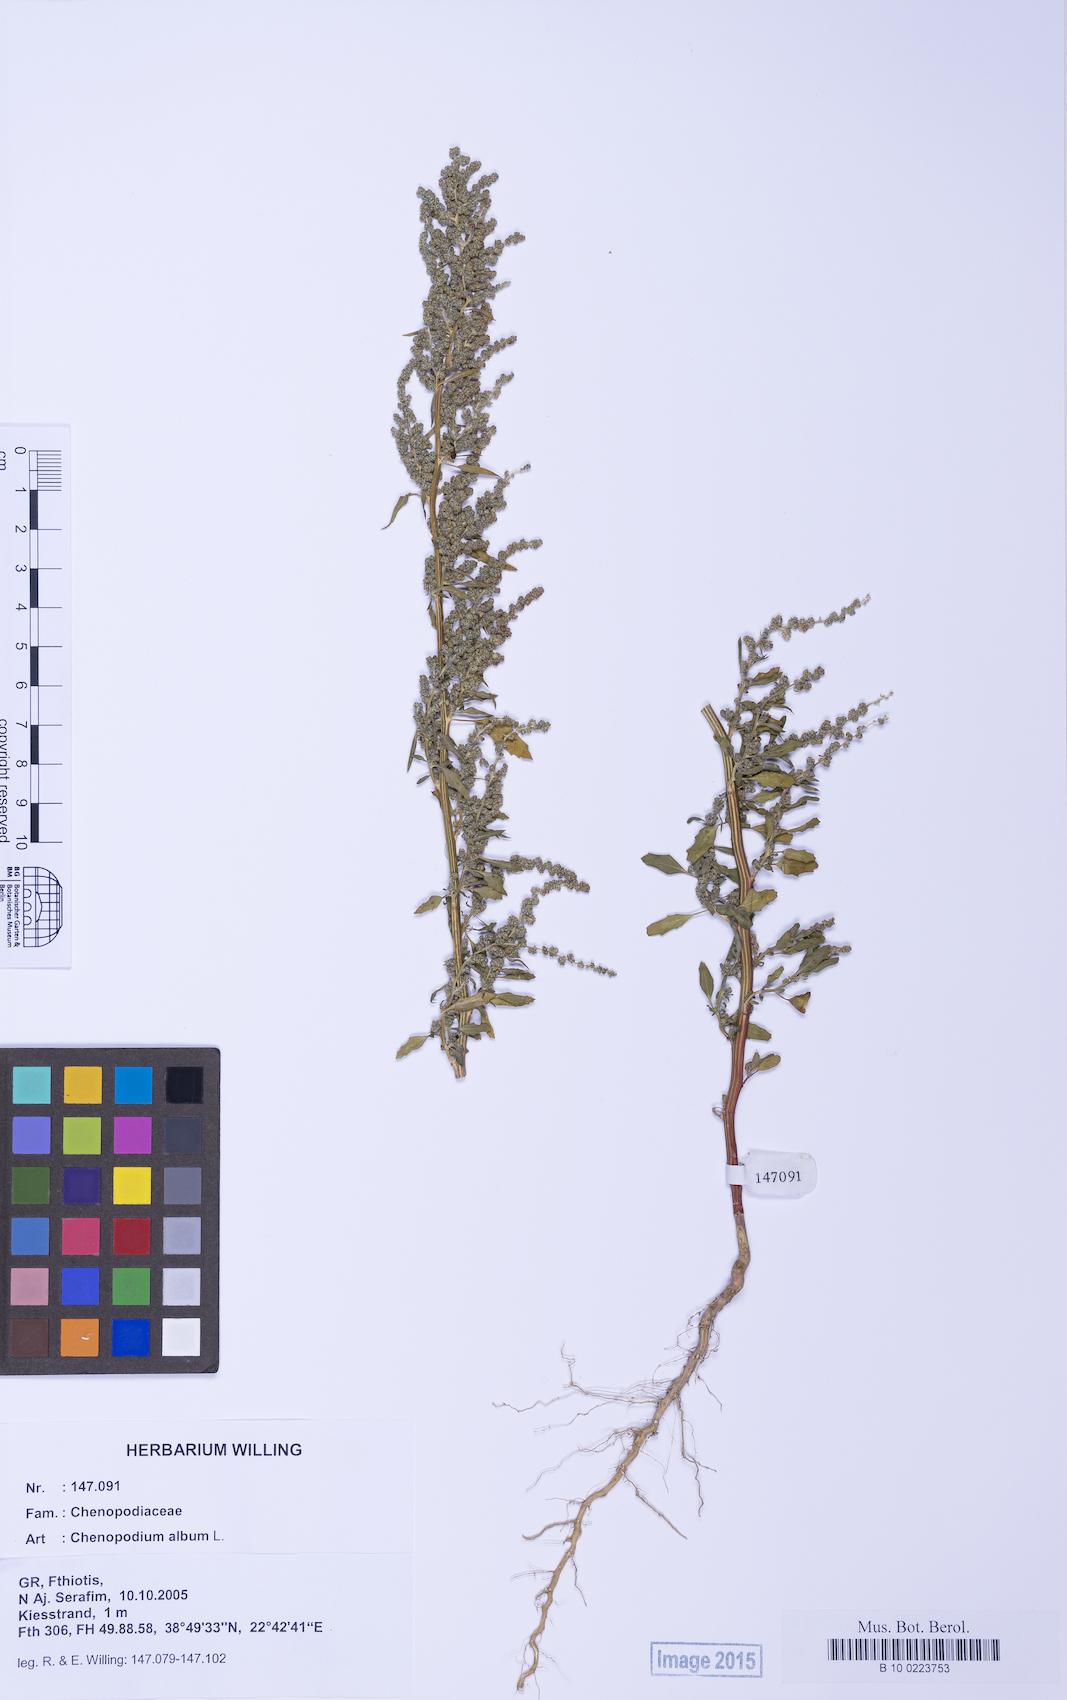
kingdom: Plantae
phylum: Tracheophyta
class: Magnoliopsida
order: Caryophyllales
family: Amaranthaceae
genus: Chenopodium
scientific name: Chenopodium album
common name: Fat-hen
